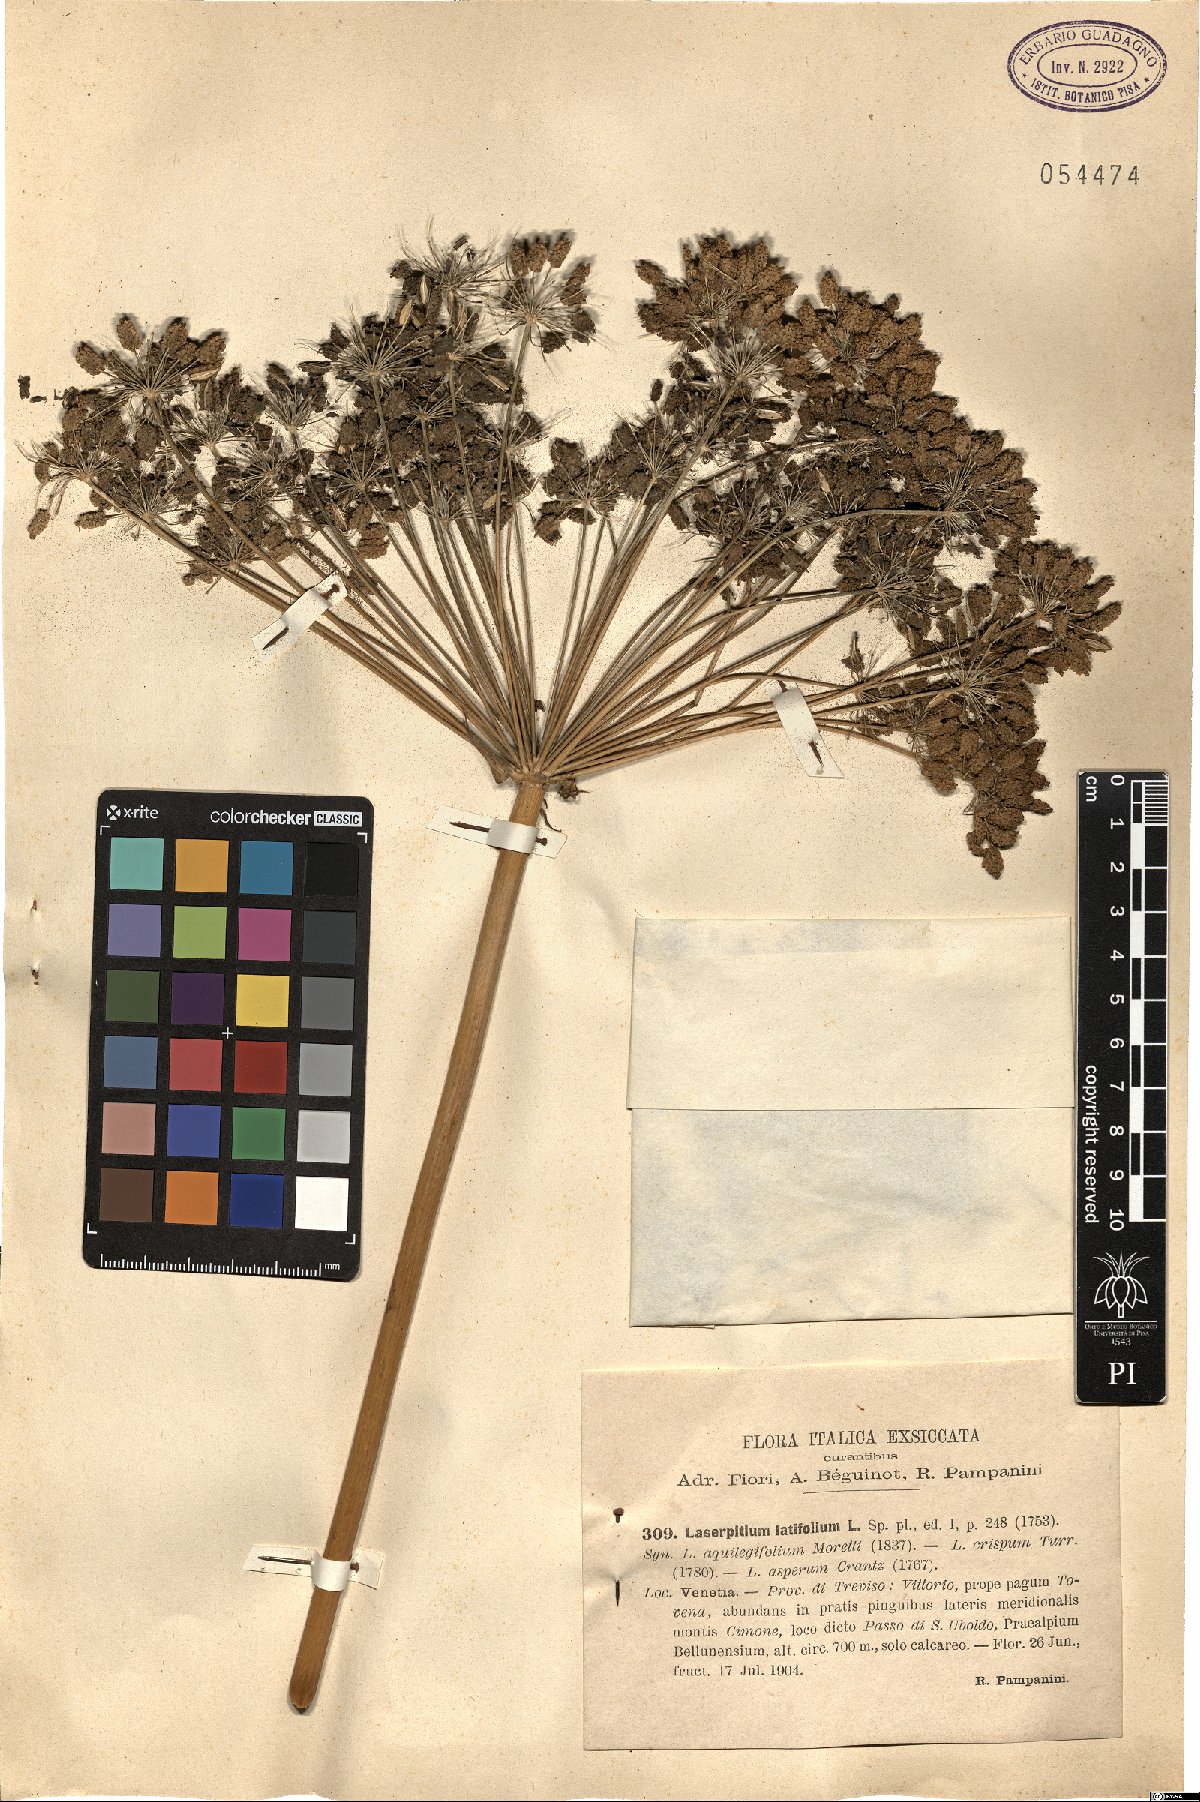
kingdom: Plantae
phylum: Tracheophyta
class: Magnoliopsida
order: Apiales
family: Apiaceae
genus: Laserpitium
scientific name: Laserpitium latifolium
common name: Broadleaf sermountain
